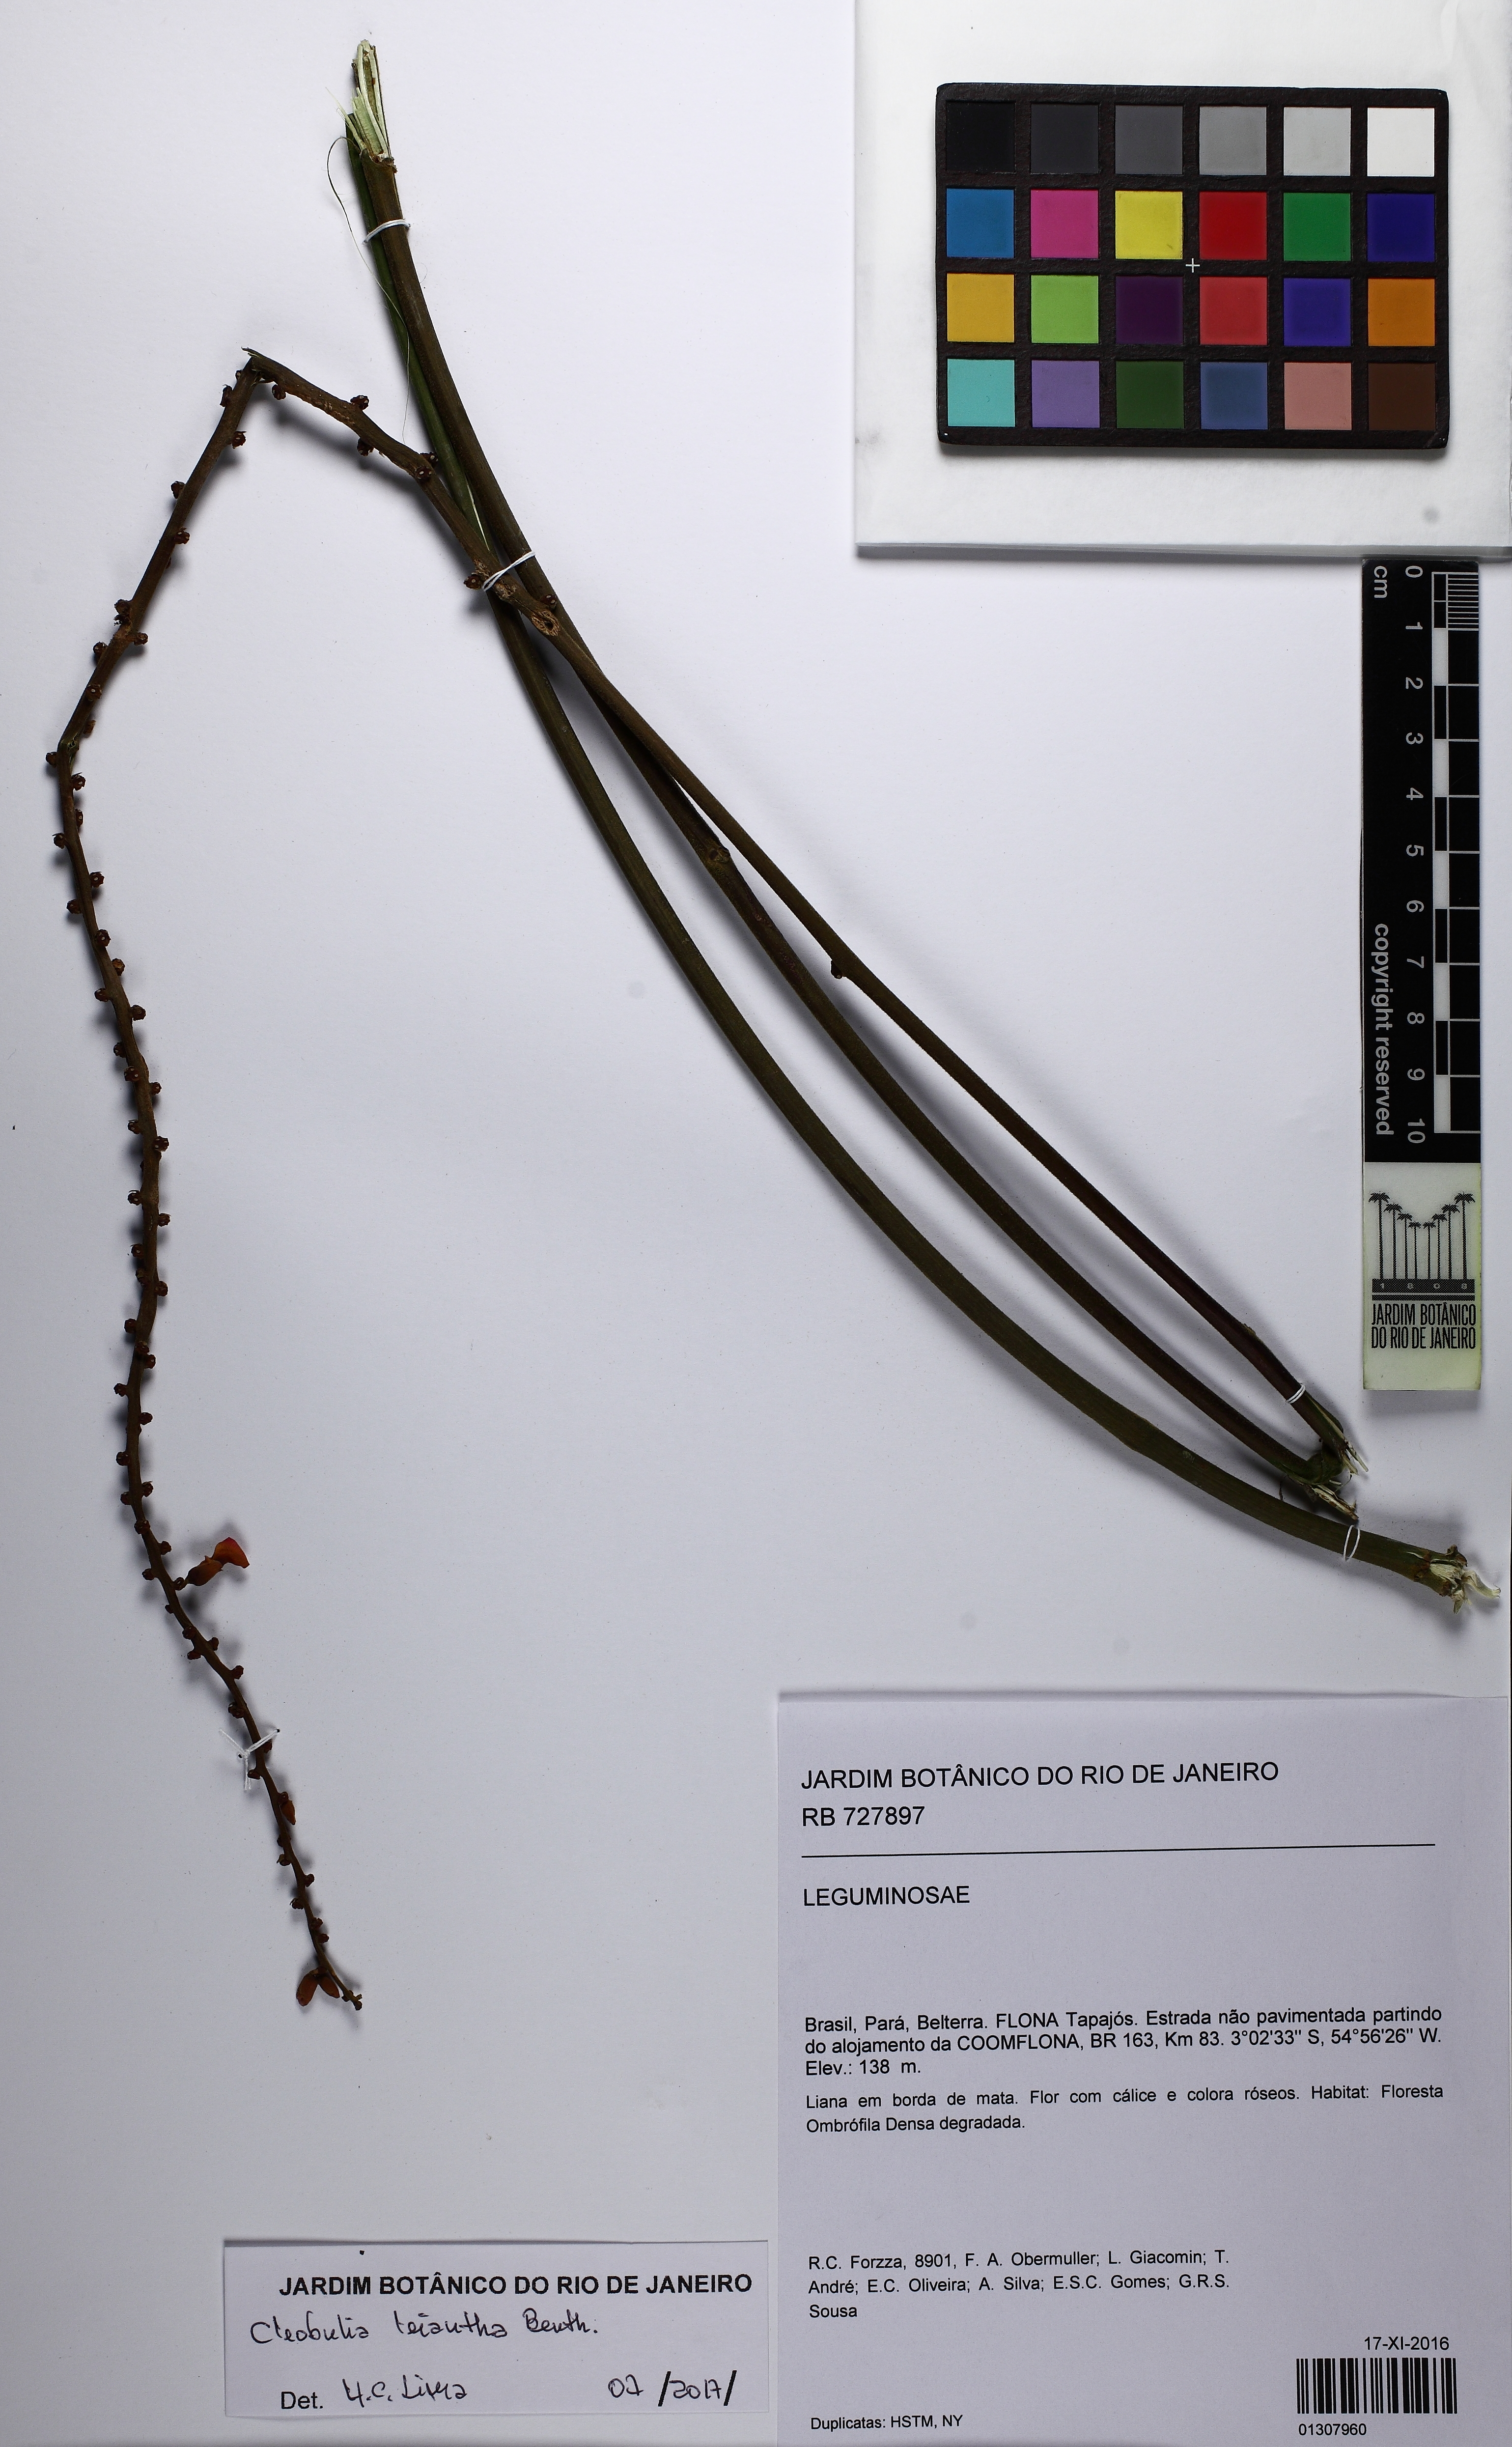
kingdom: Plantae
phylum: Tracheophyta
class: Magnoliopsida
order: Fabales
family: Fabaceae
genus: Cleobulia
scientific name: Cleobulia leiantha
